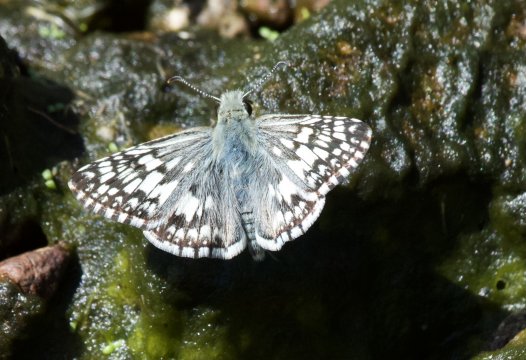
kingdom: Animalia
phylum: Arthropoda
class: Insecta
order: Lepidoptera
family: Hesperiidae
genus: Pyrgus
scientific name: Pyrgus communis
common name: Common Checkered-Skipper
